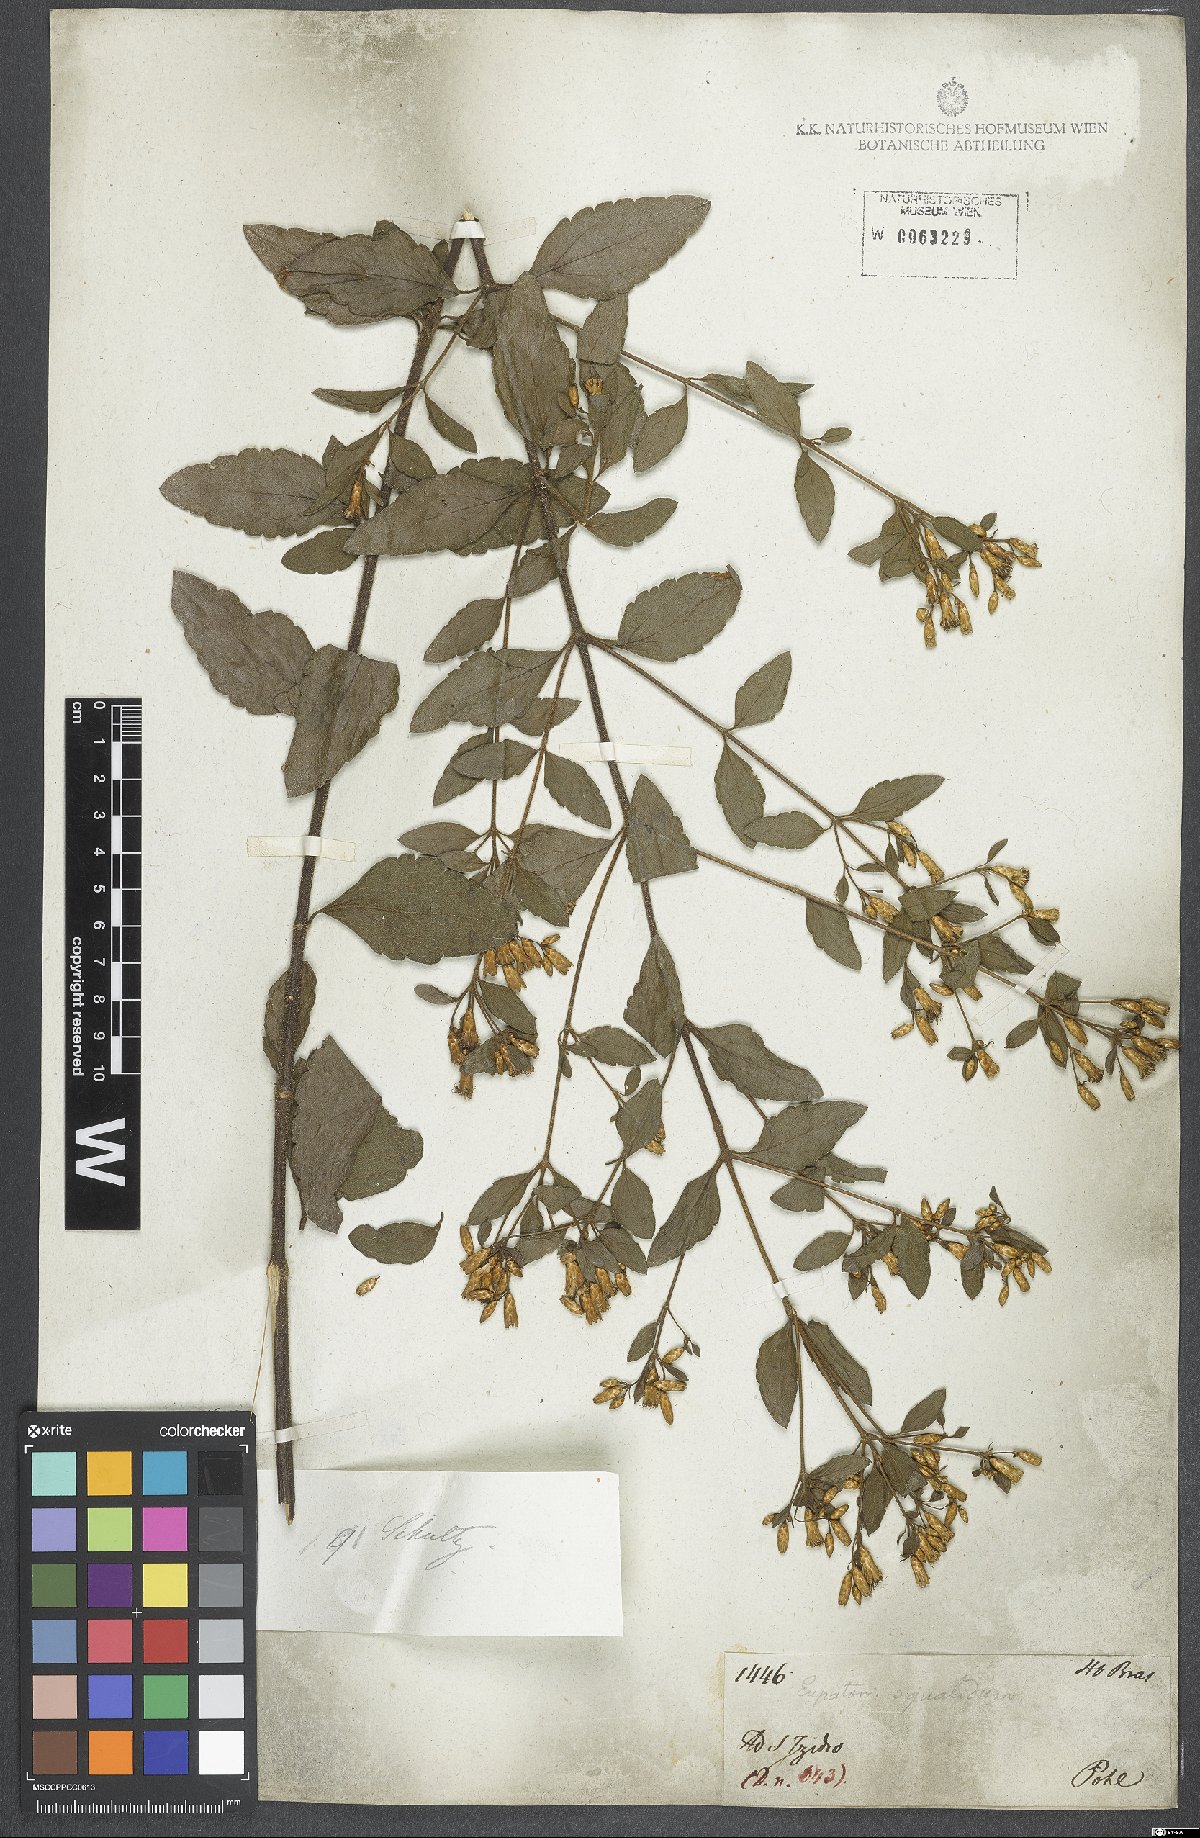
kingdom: Plantae
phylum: Tracheophyta
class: Magnoliopsida
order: Asterales
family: Asteraceae
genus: Chromolaena
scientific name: Chromolaena squalida
